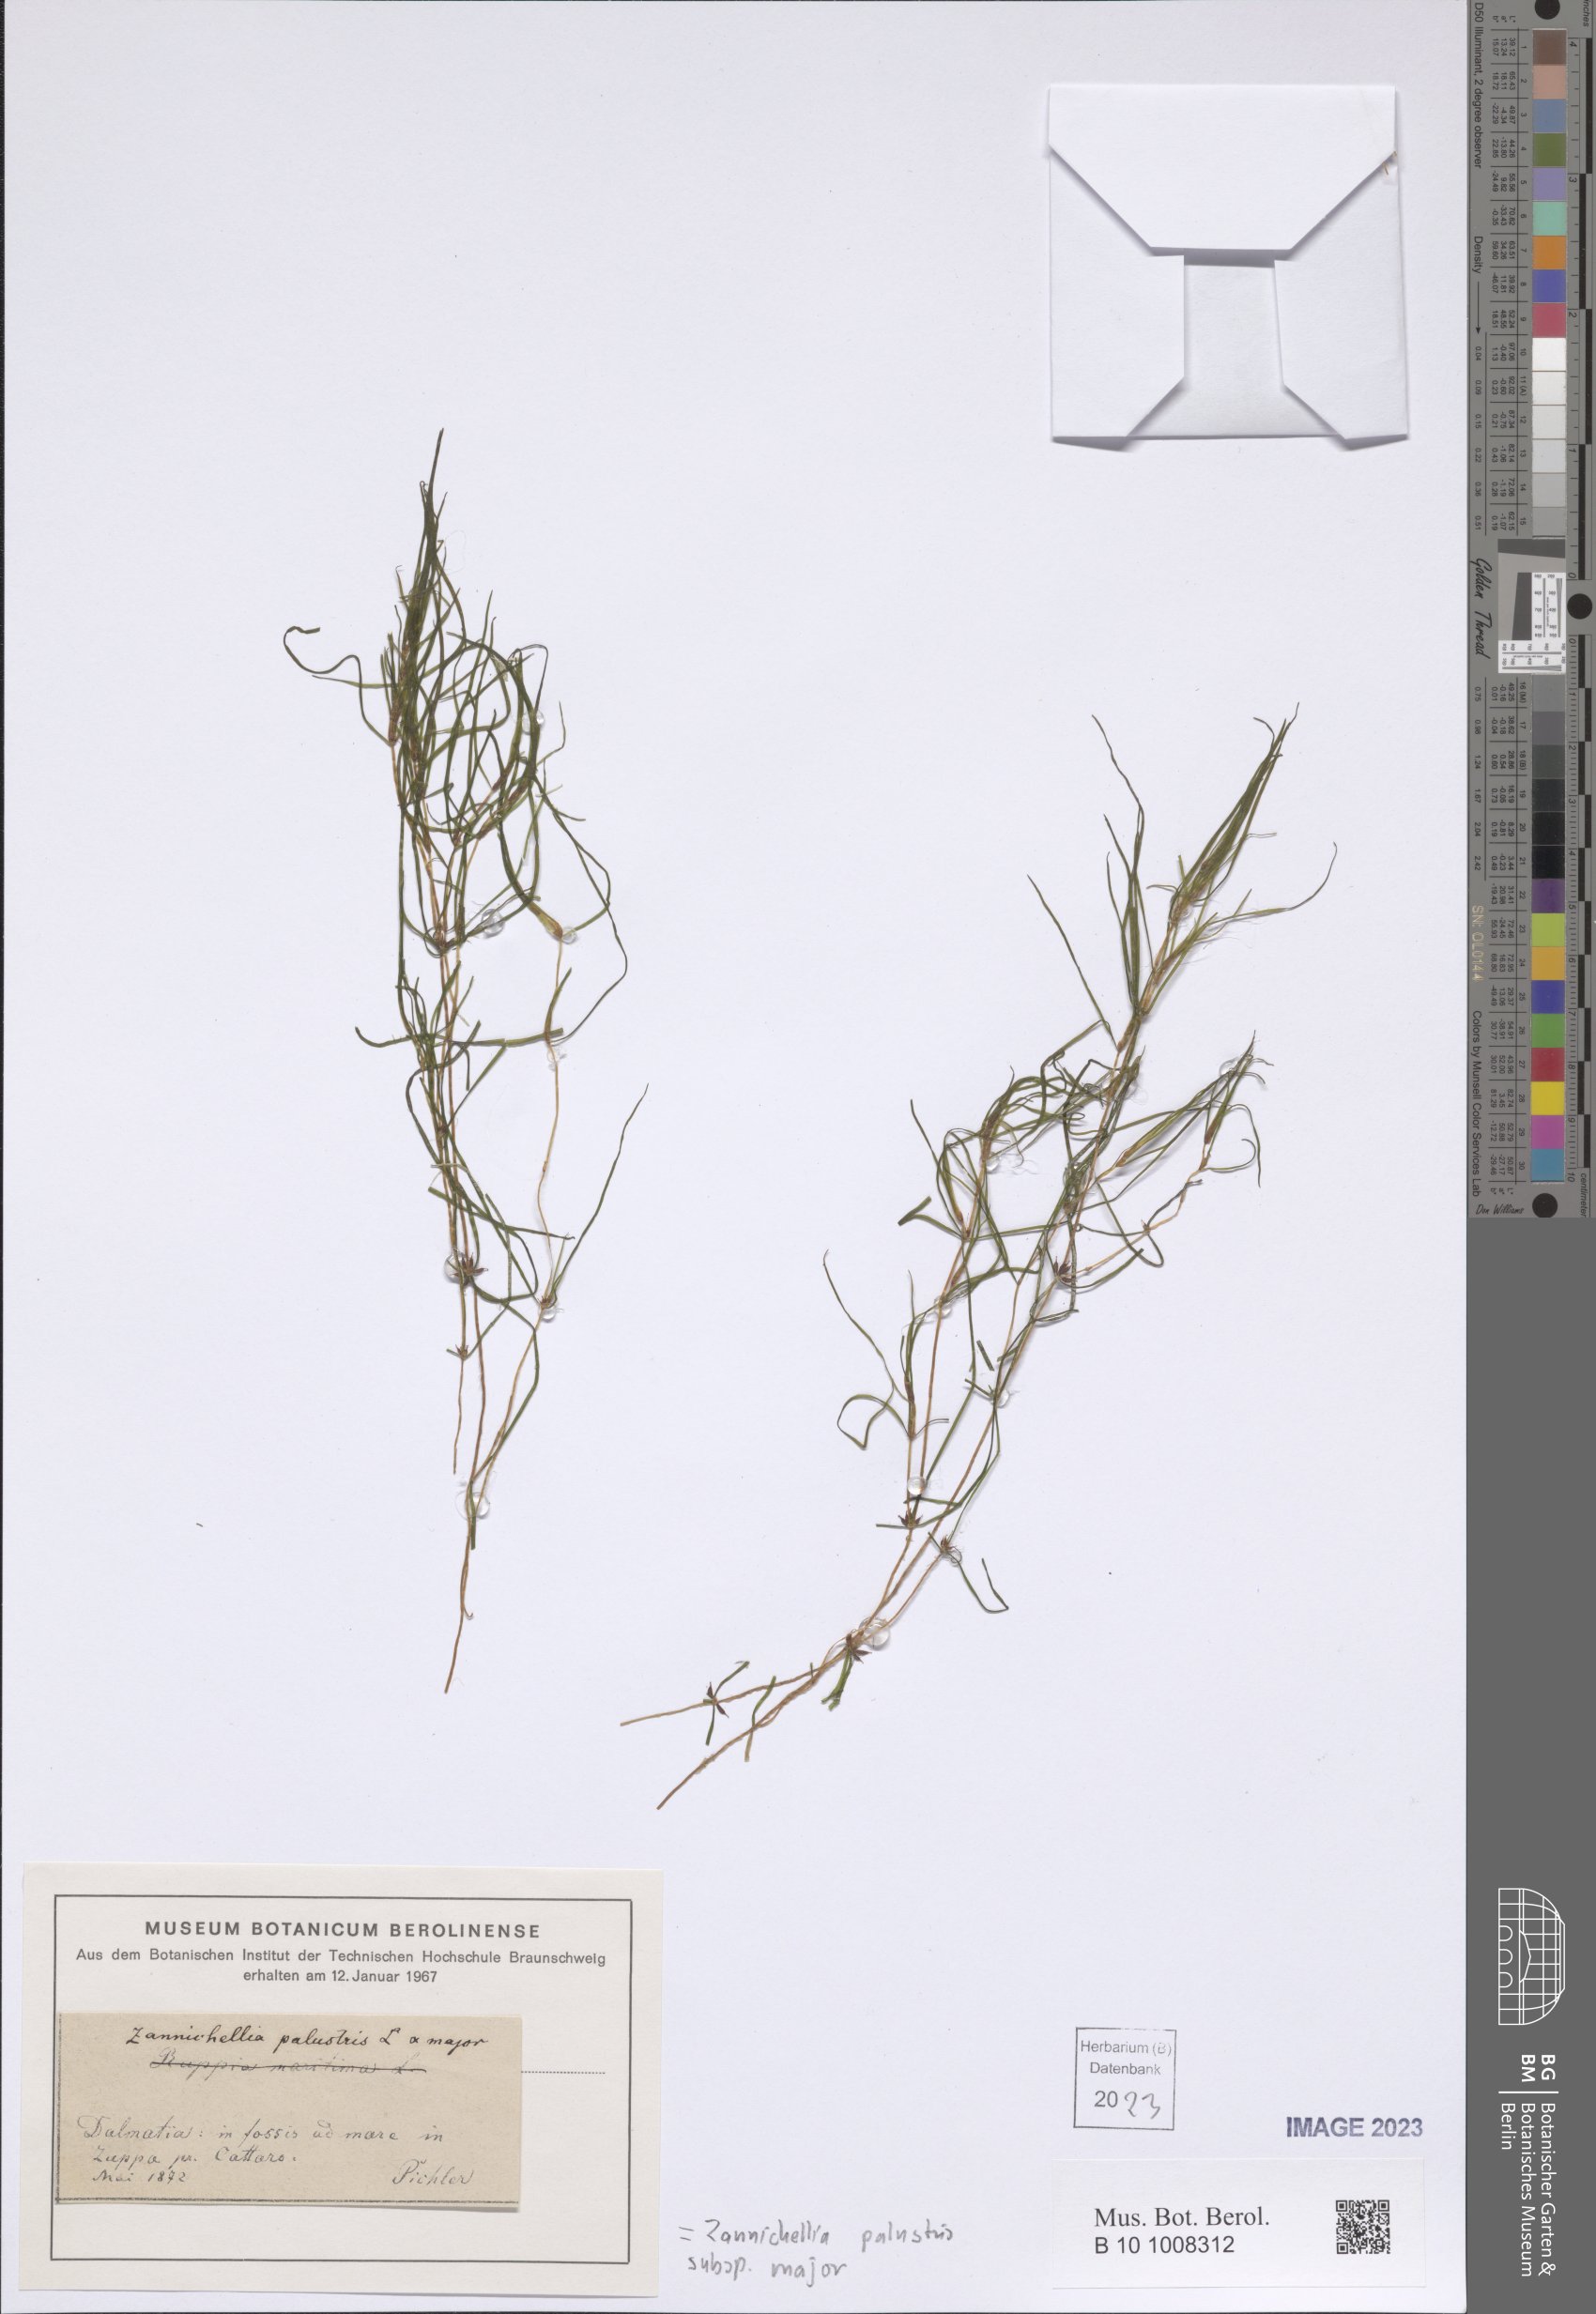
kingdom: Plantae
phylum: Tracheophyta
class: Liliopsida
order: Alismatales
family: Potamogetonaceae
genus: Zannichellia
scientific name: Zannichellia palustris
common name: Horned pondweed
